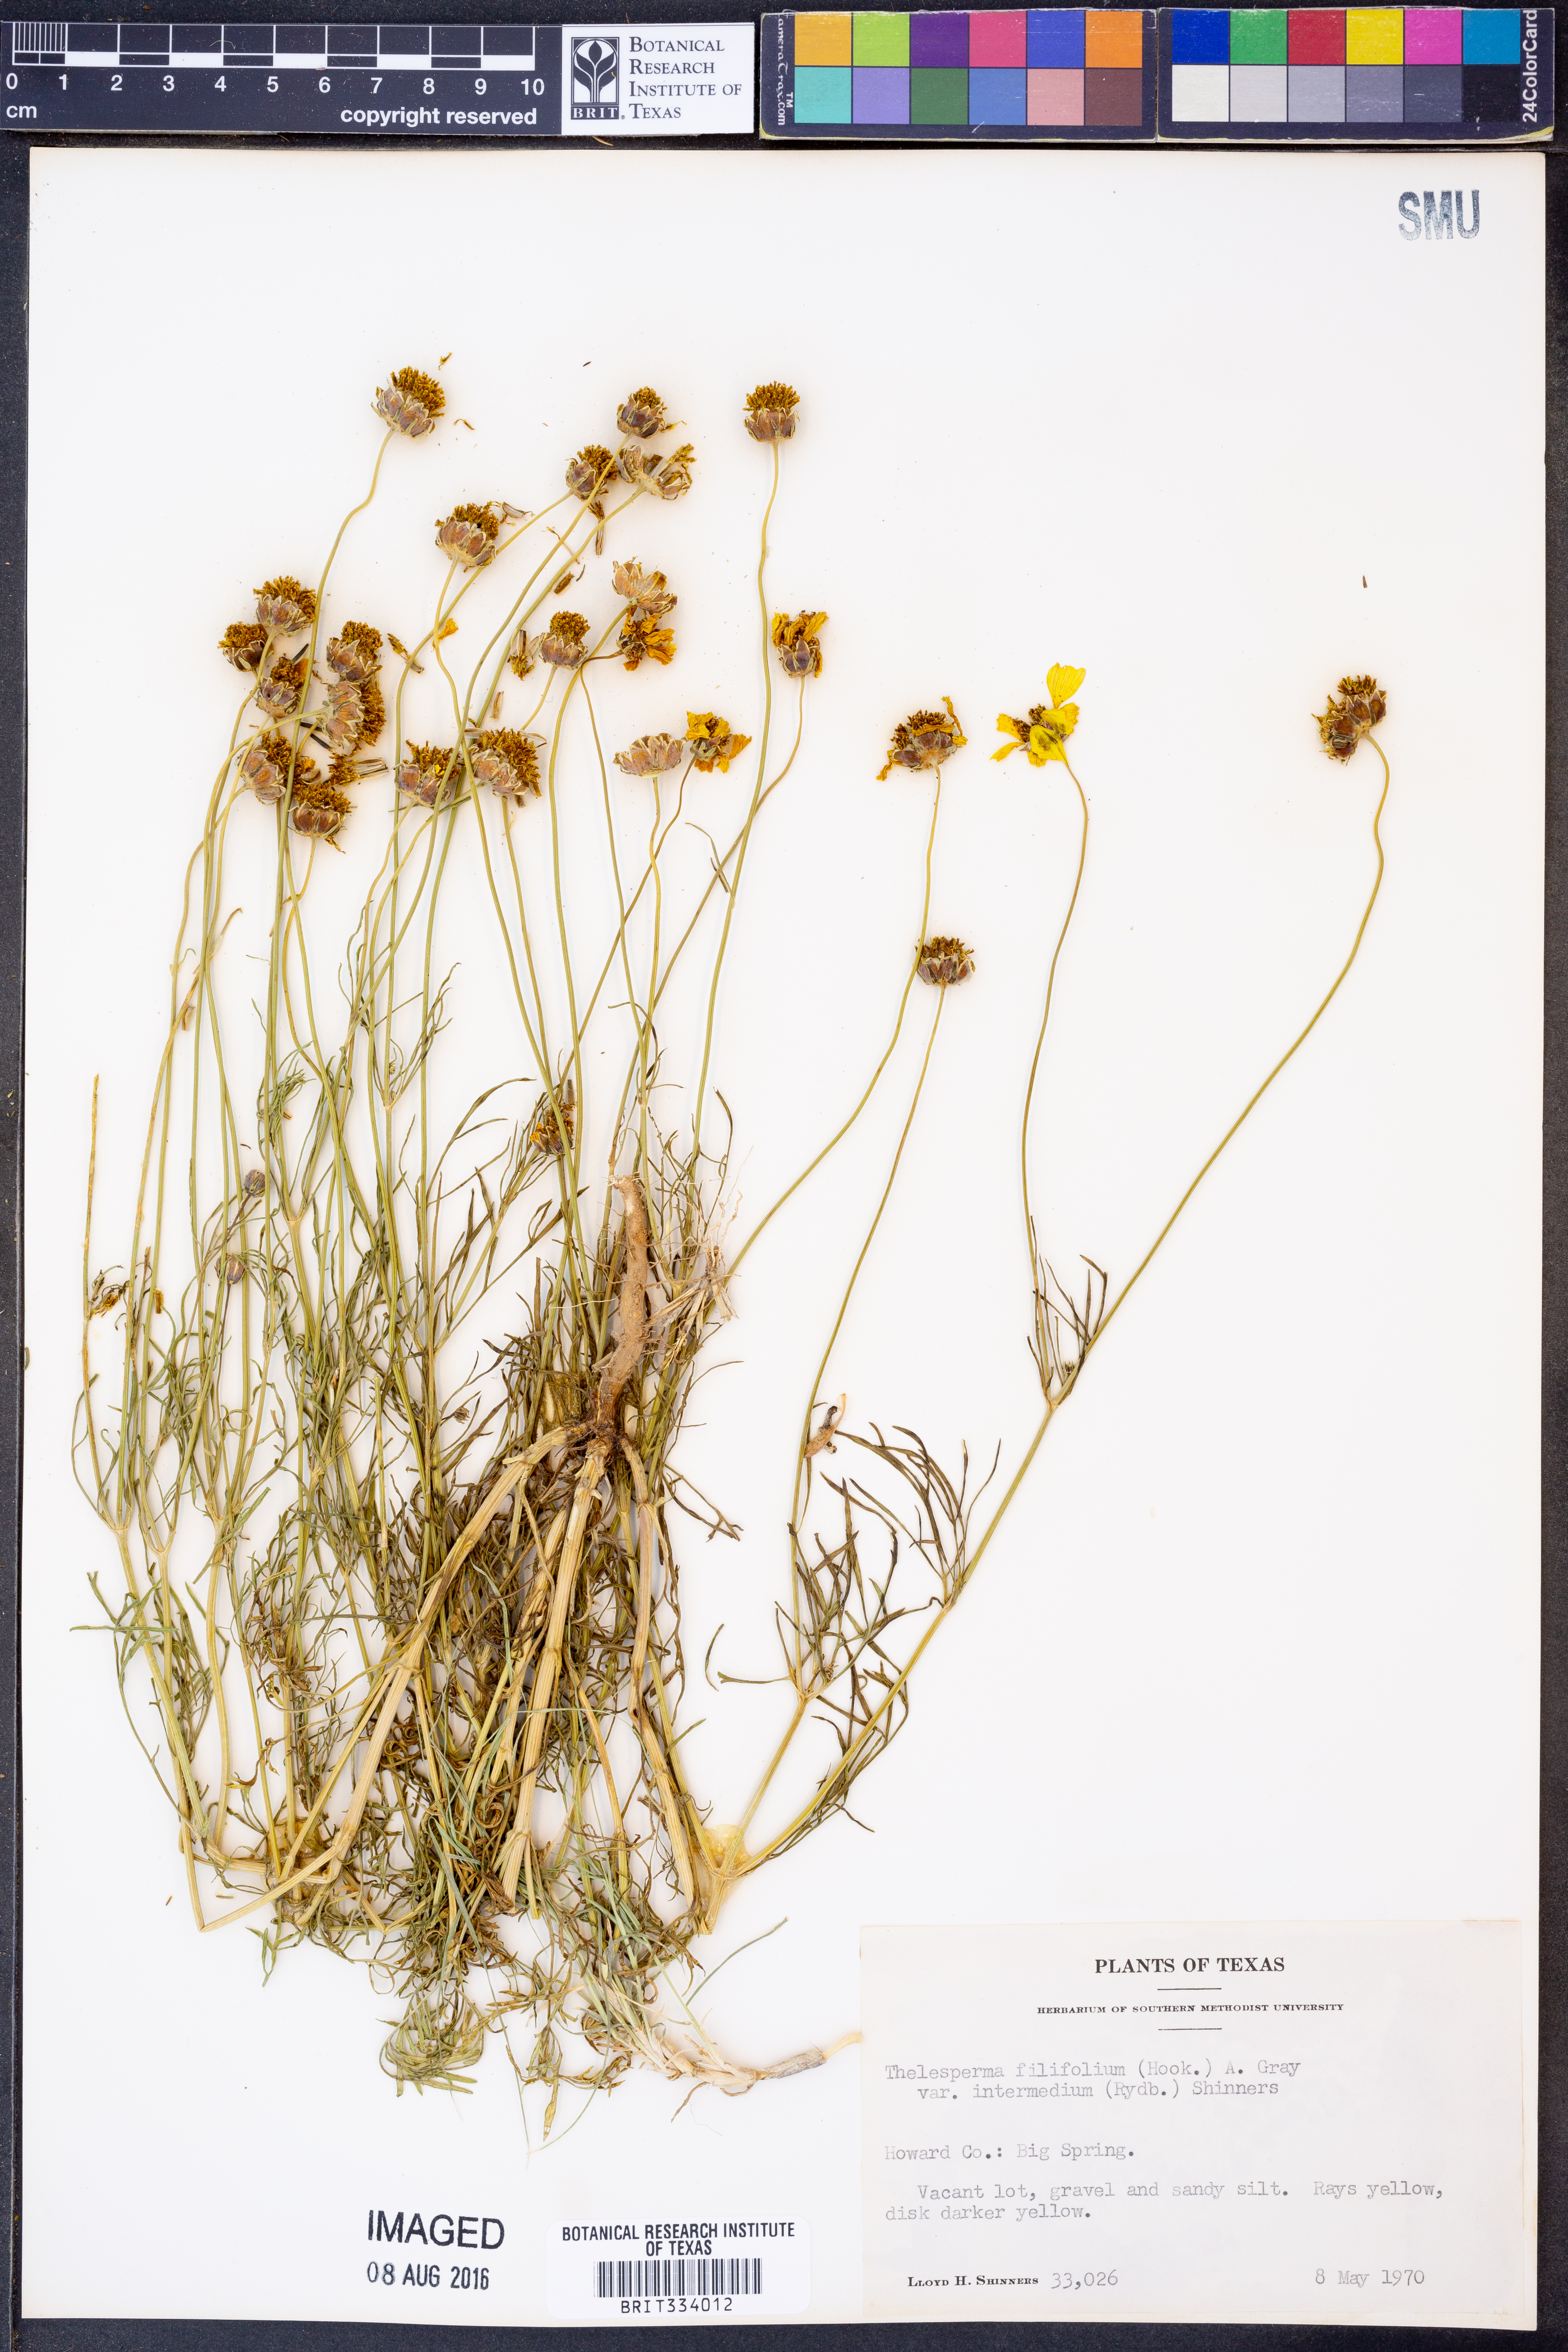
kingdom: Plantae
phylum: Tracheophyta
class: Magnoliopsida
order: Asterales
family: Asteraceae
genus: Thelesperma
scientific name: Thelesperma filifolium
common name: Stiff greenthread
